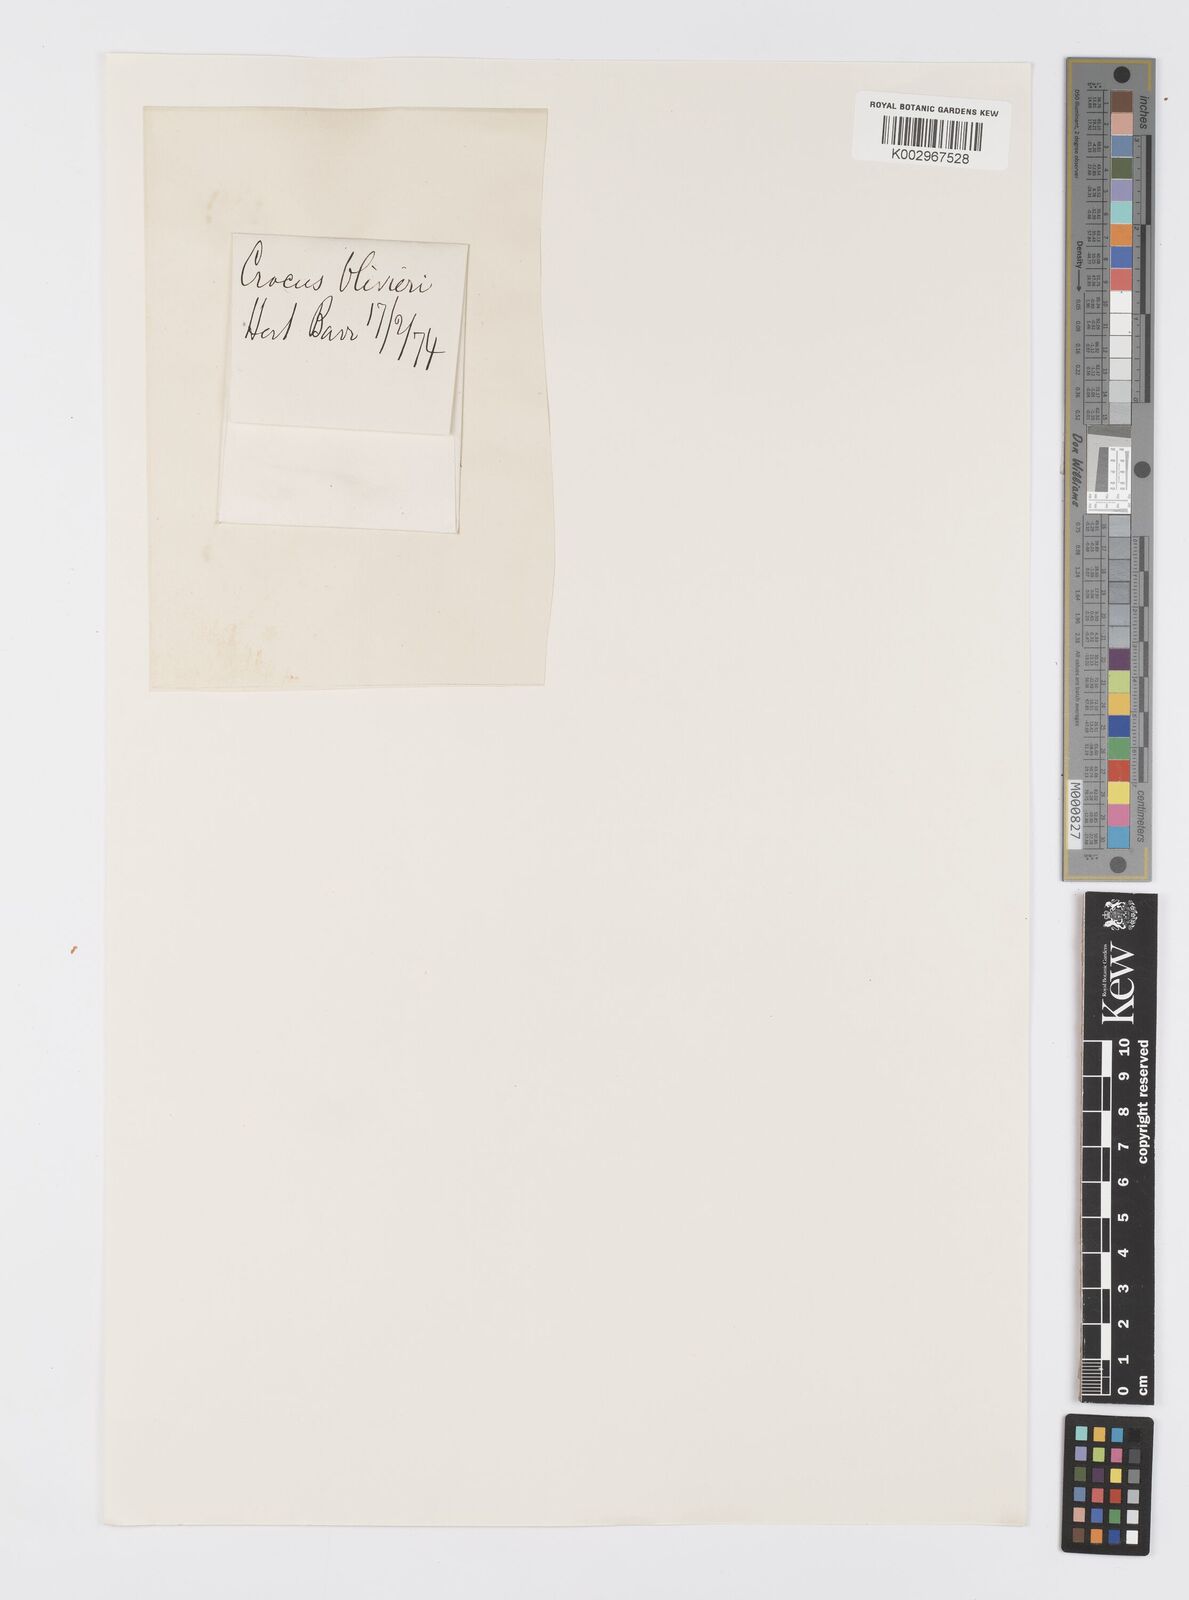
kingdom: Plantae
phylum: Tracheophyta
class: Liliopsida
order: Asparagales
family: Iridaceae
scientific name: Iridaceae
